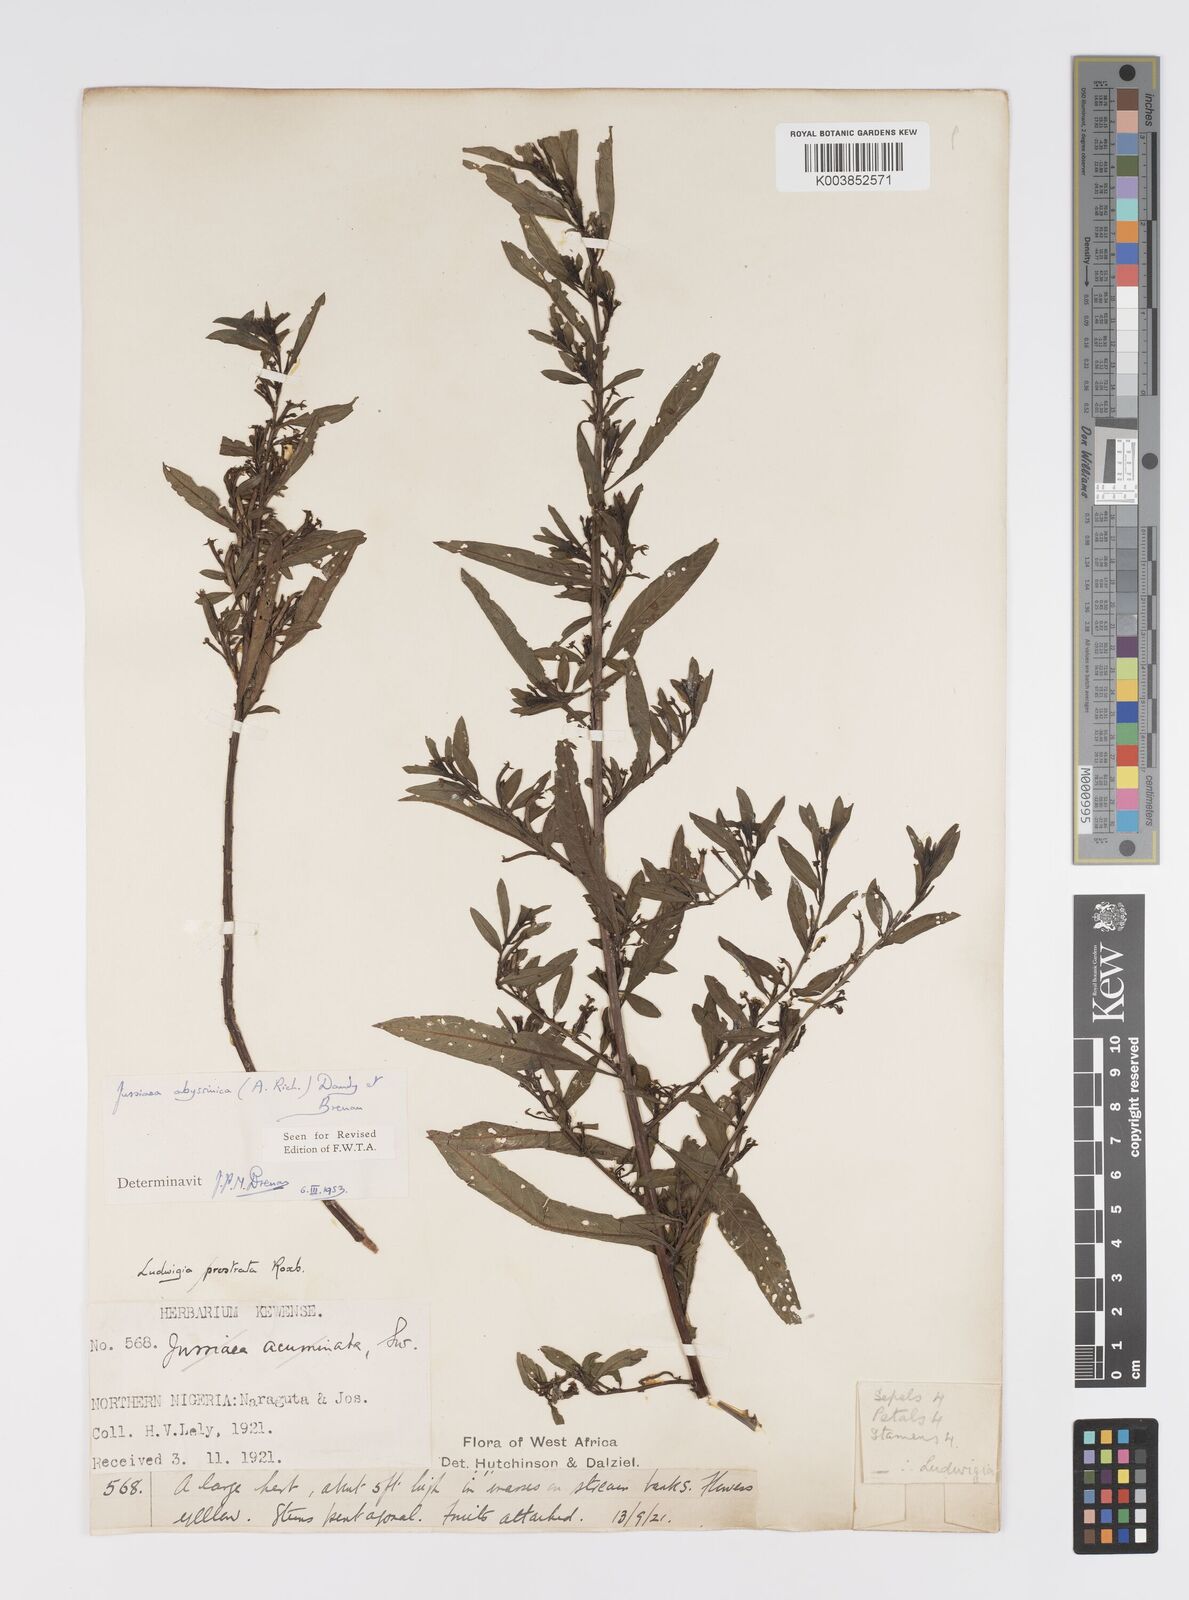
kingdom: Plantae
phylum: Tracheophyta
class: Magnoliopsida
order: Myrtales
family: Onagraceae
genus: Ludwigia
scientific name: Ludwigia abyssinica
